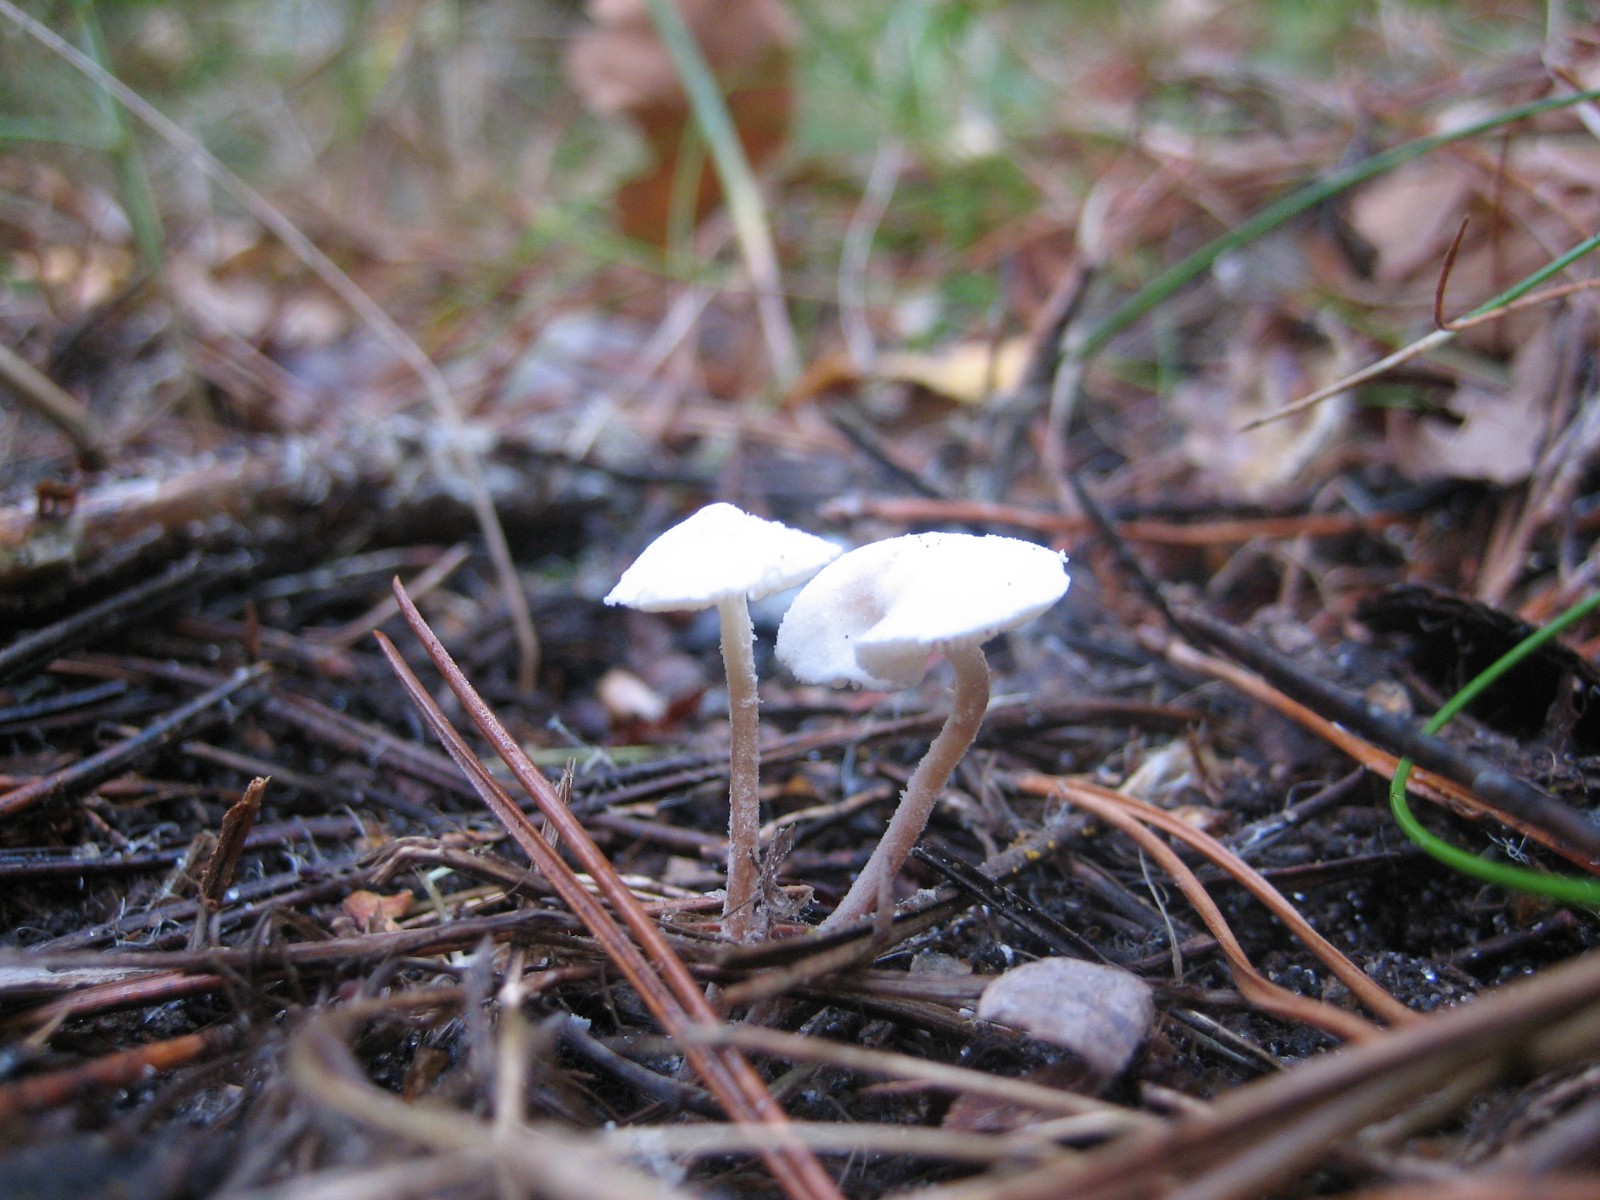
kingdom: Fungi
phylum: Basidiomycota
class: Agaricomycetes
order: Agaricales
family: Agaricaceae
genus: Cystolepiota
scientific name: Cystolepiota seminuda
